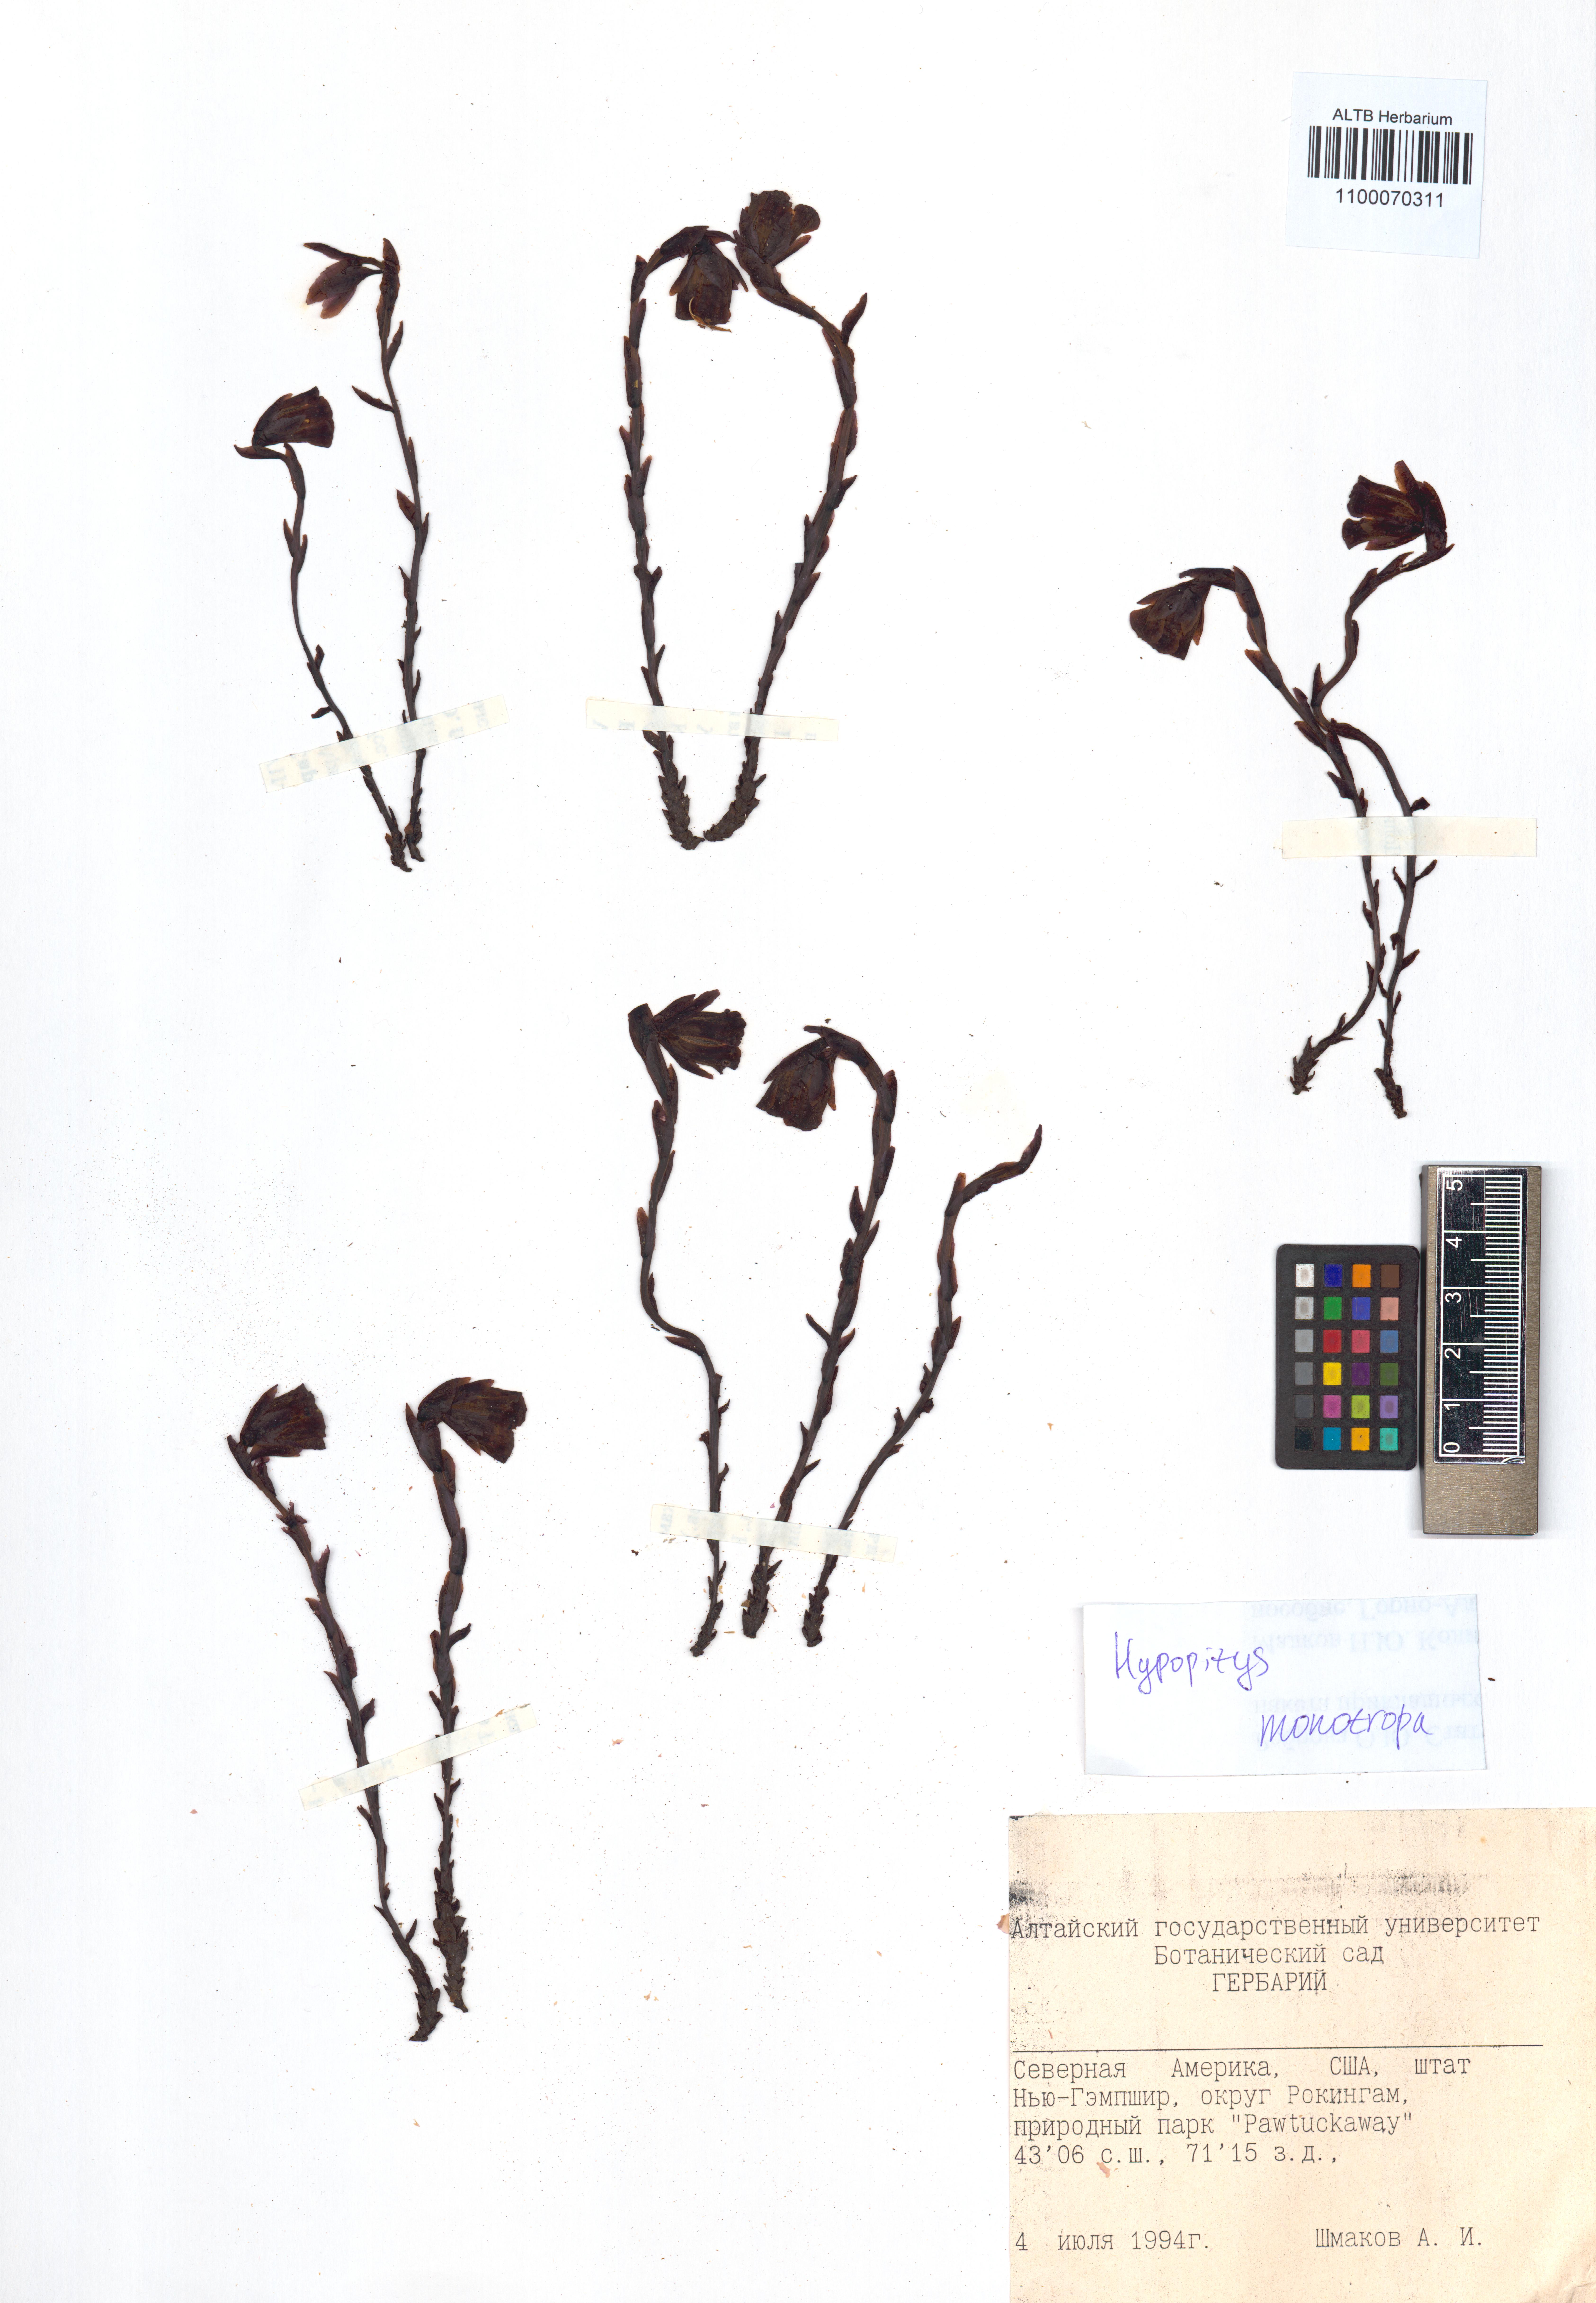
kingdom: Plantae
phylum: Tracheophyta
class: Magnoliopsida
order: Ericales
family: Ericaceae
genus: Hypopitys
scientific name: Hypopitys monotropa
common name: Yellow bird's-nest
